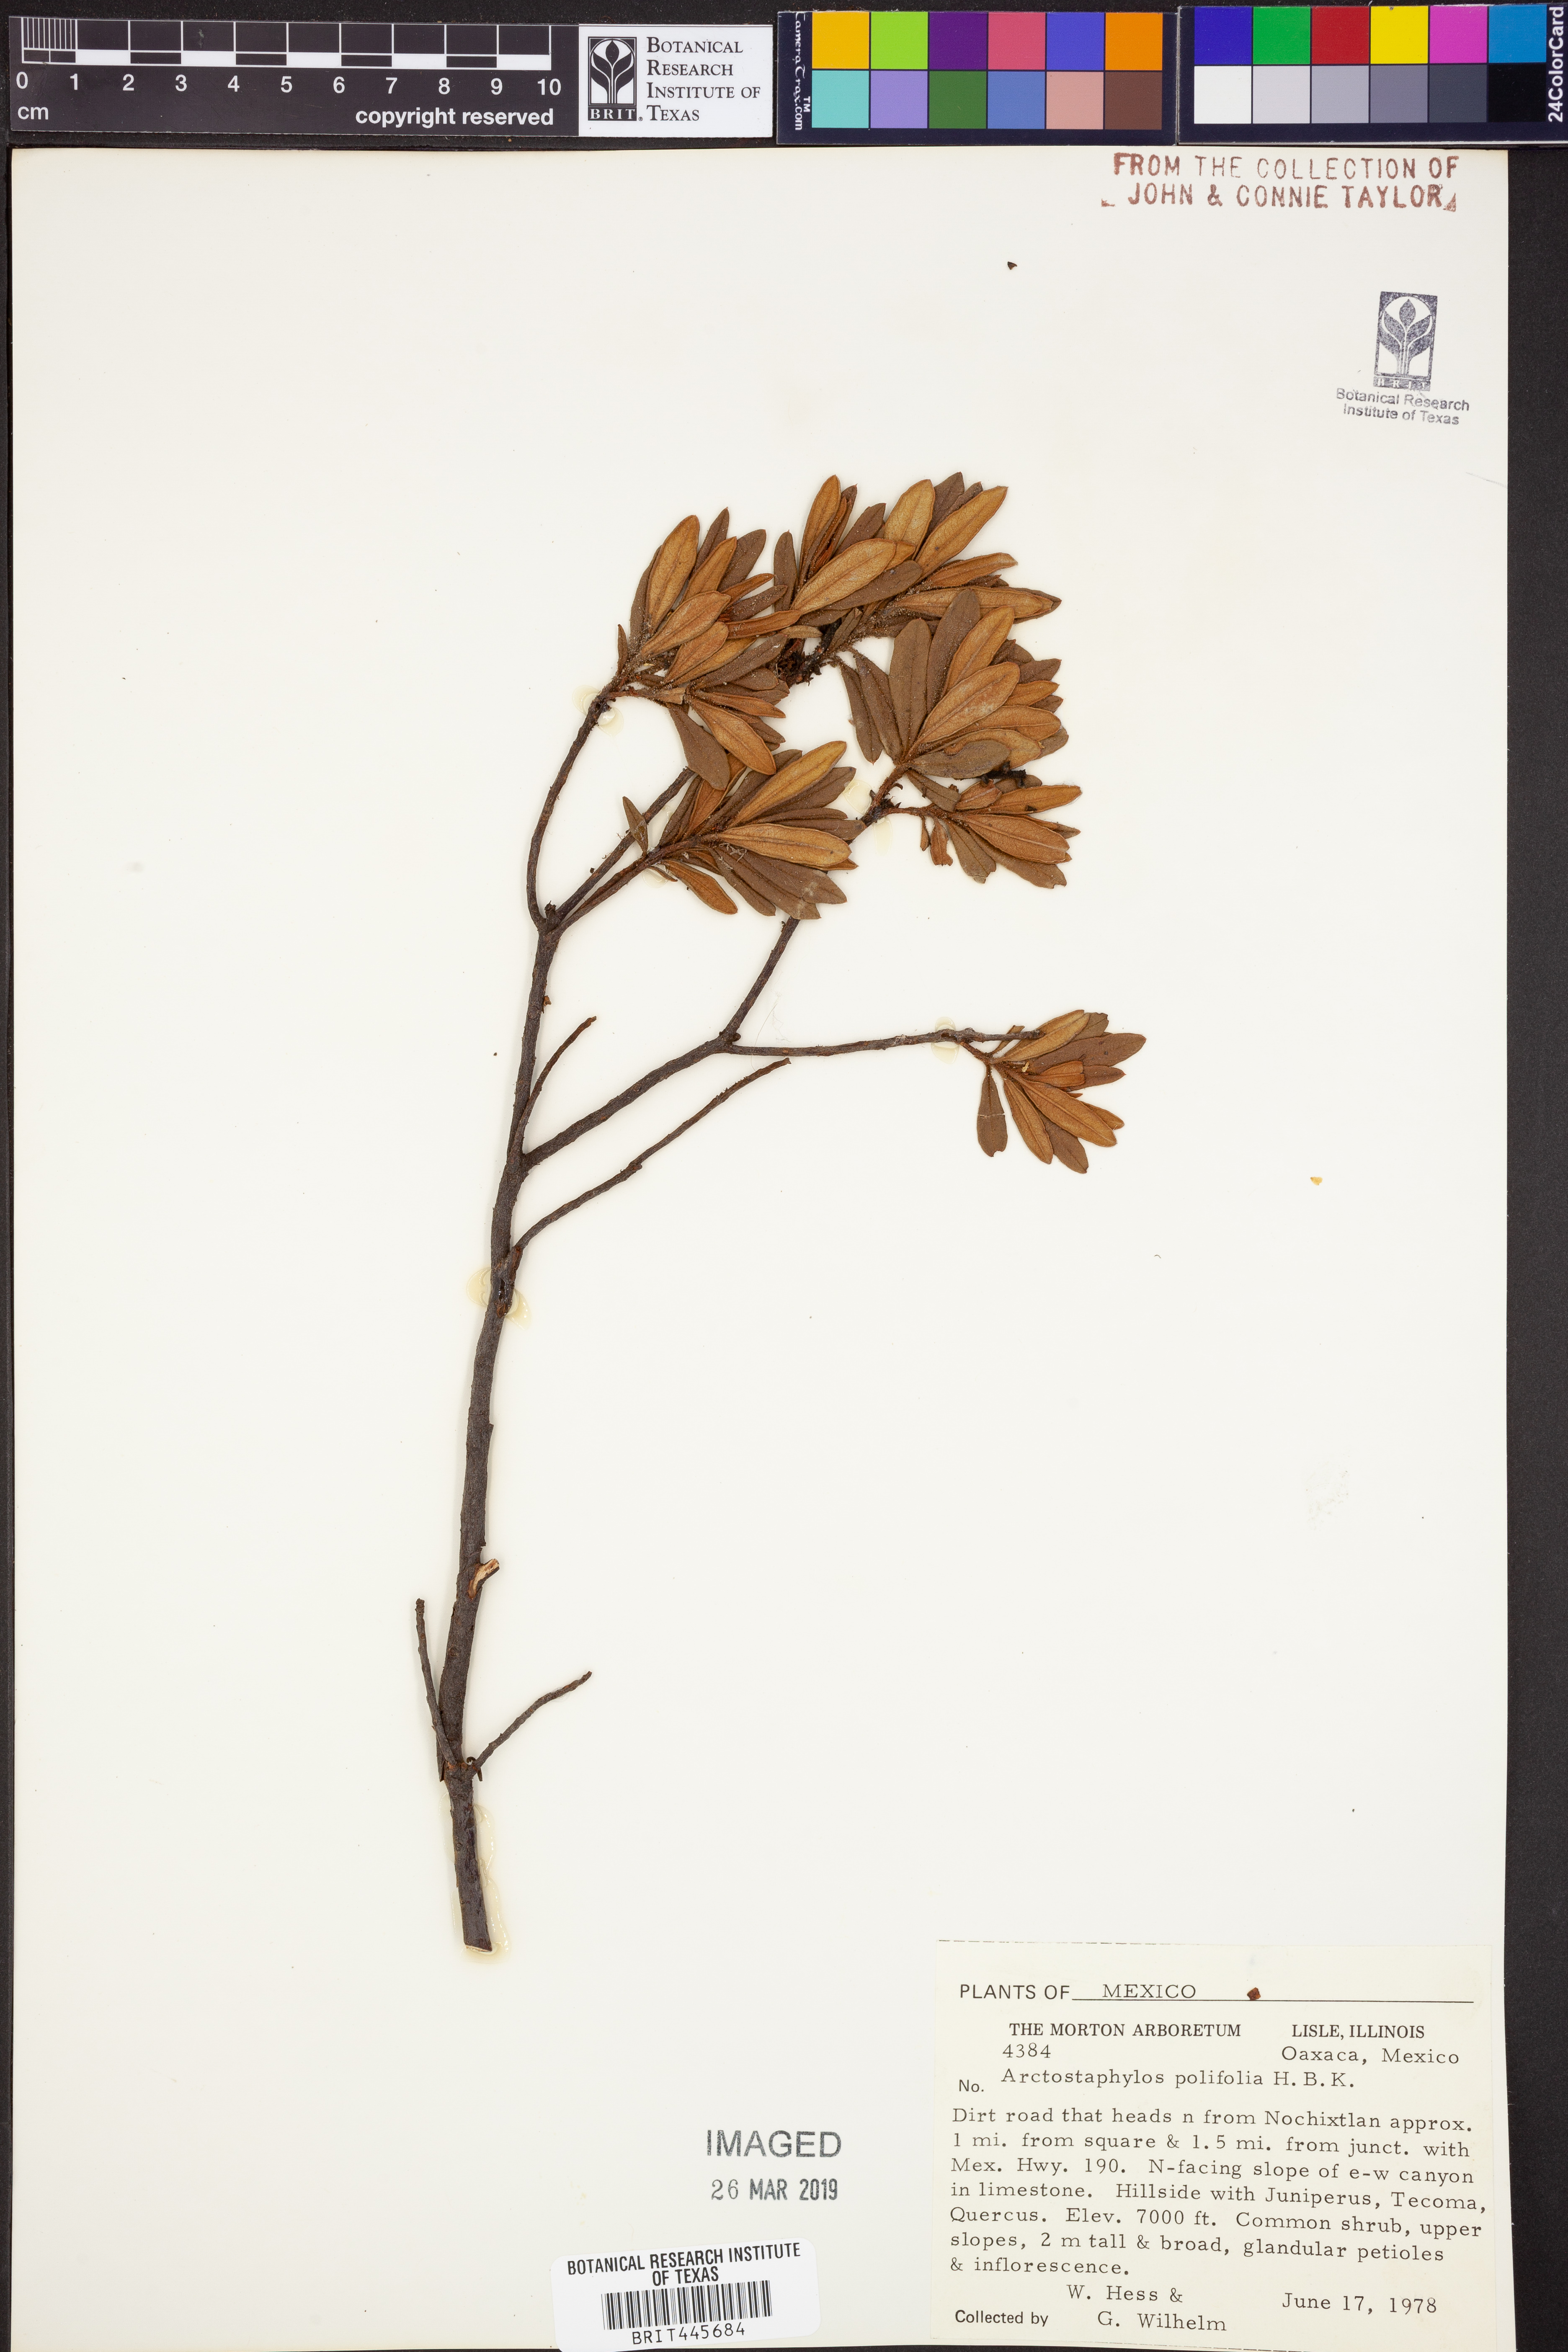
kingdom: Plantae
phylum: Tracheophyta
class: Magnoliopsida
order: Ericales
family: Ericaceae
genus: Ornithostaphylos
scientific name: Ornithostaphylos oppositifolia
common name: Baja california birdbush
